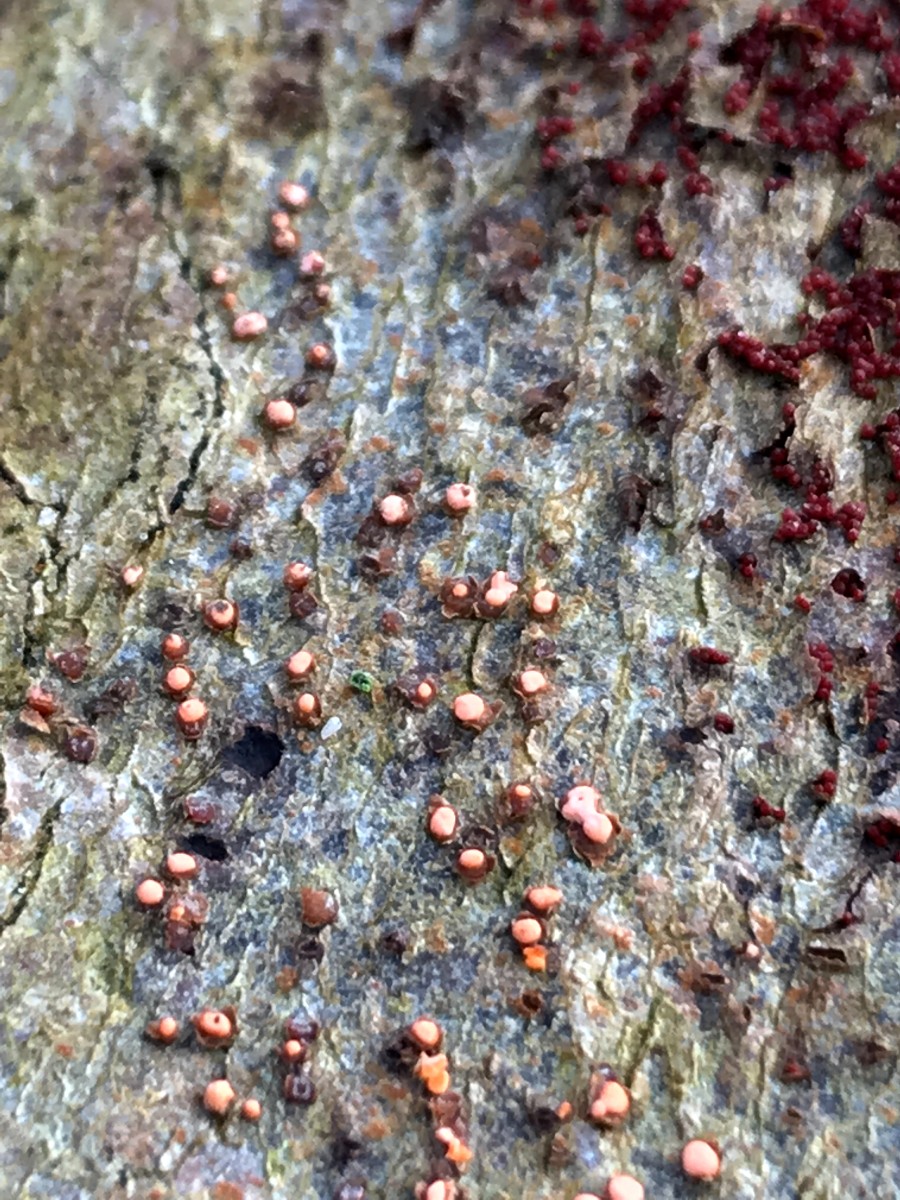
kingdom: Fungi
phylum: Ascomycota
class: Sordariomycetes
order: Hypocreales
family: Nectriaceae
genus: Nectria
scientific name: Nectria cinnabarina
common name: almindelig cinnobersvamp
